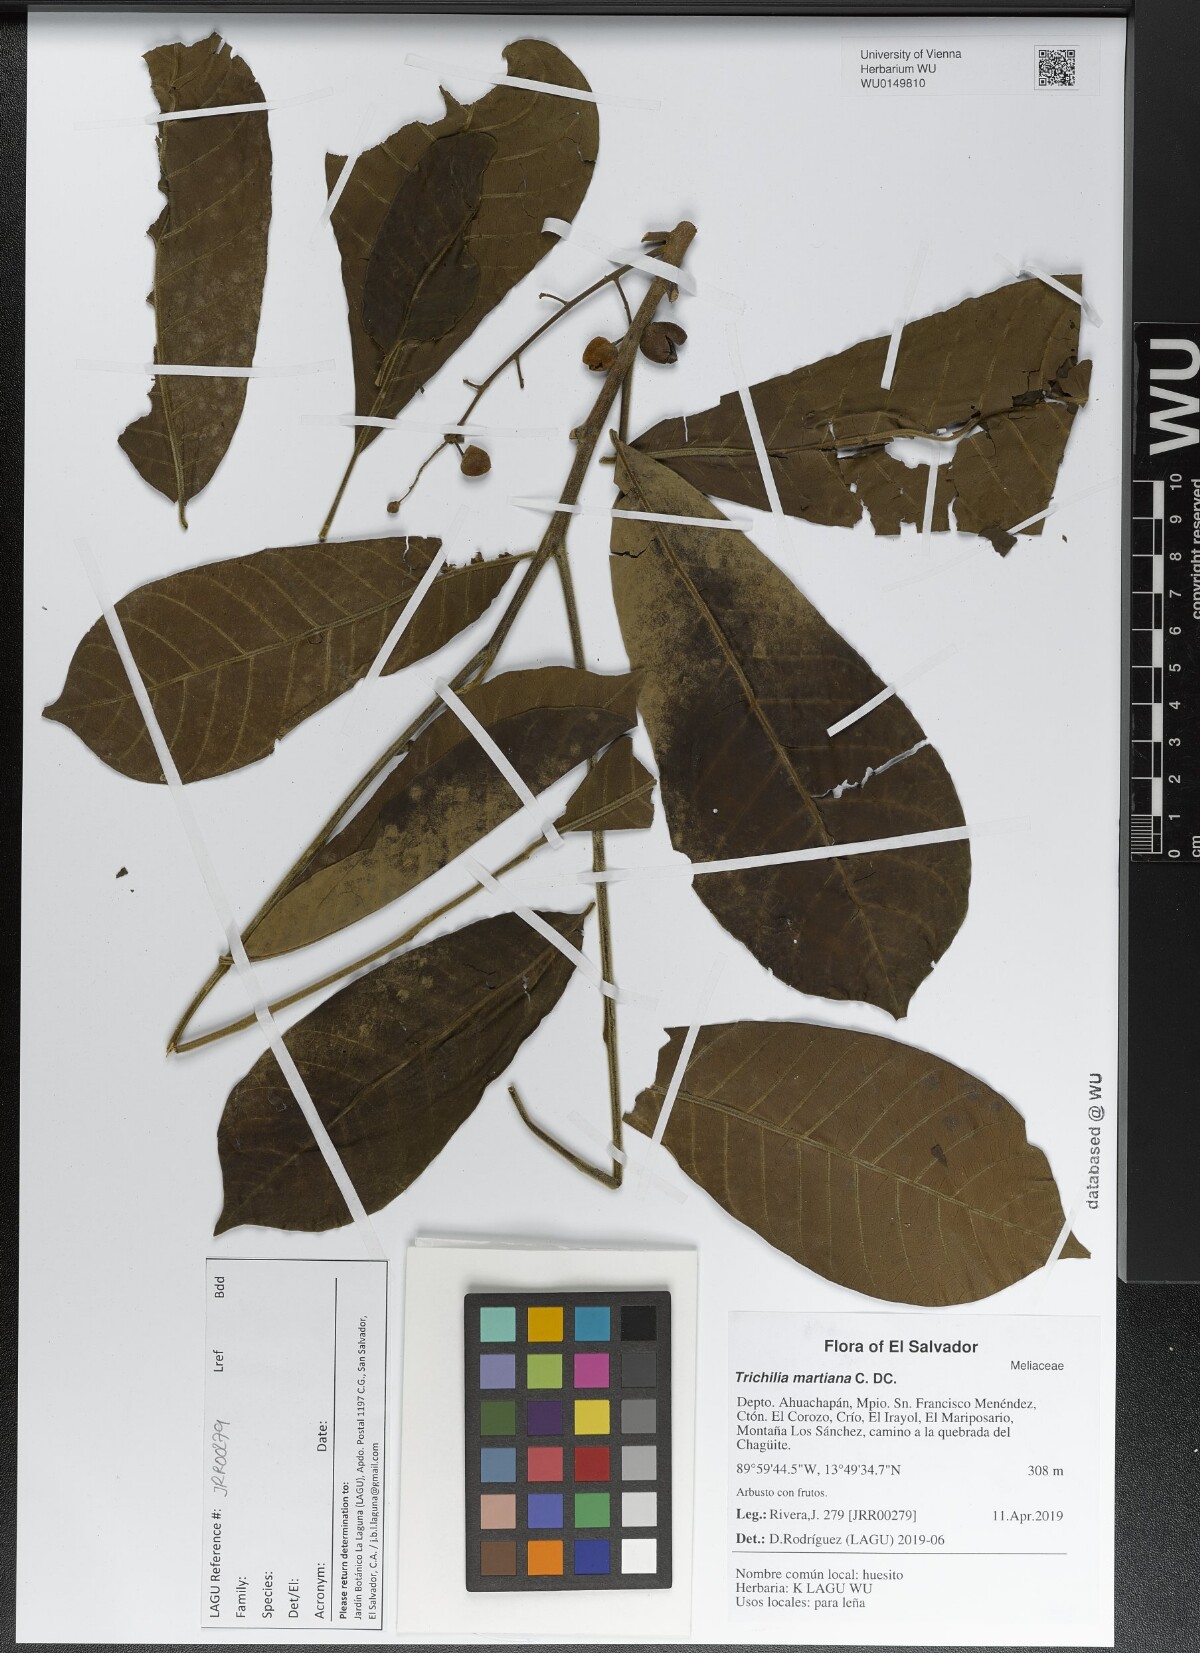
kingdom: Plantae
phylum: Tracheophyta
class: Magnoliopsida
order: Sapindales
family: Meliaceae
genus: Trichilia
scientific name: Trichilia martiana
